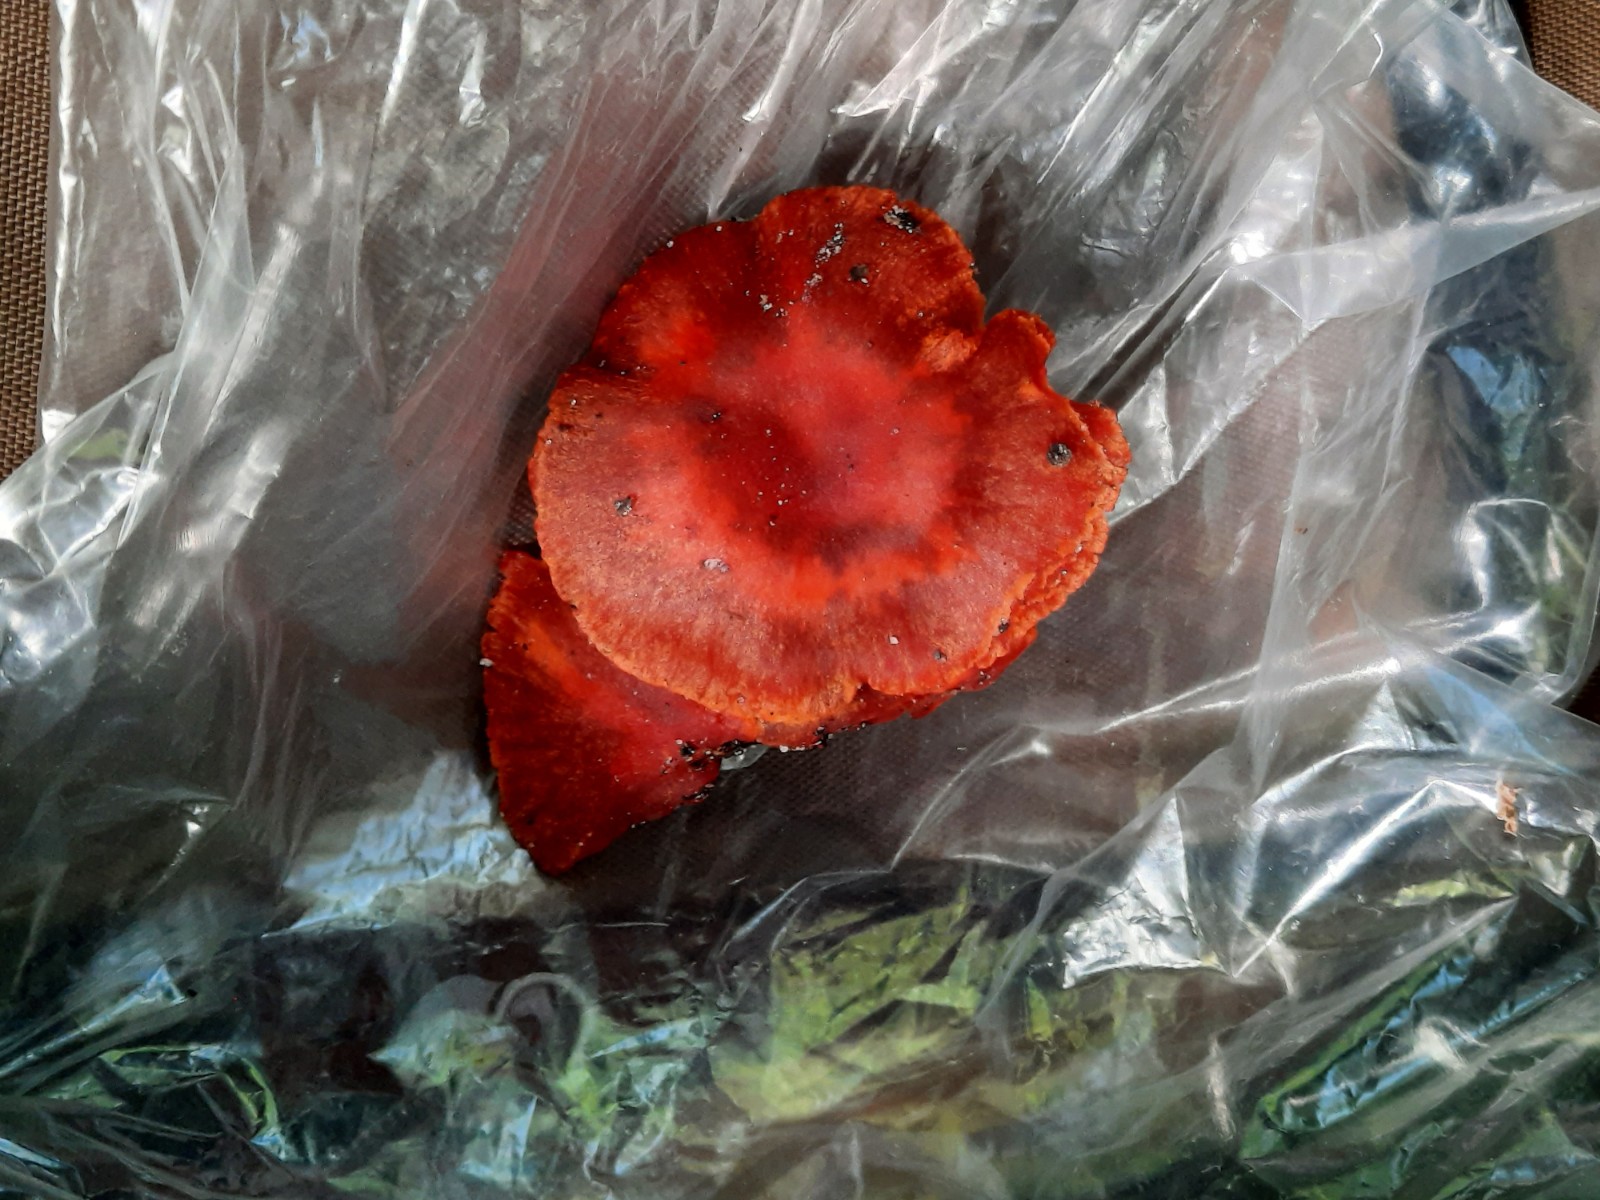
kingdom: Fungi
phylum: Basidiomycota
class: Agaricomycetes
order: Agaricales
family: Cortinariaceae
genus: Cortinarius
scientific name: Cortinarius cinnabarinus
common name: cinnober-slørhat
